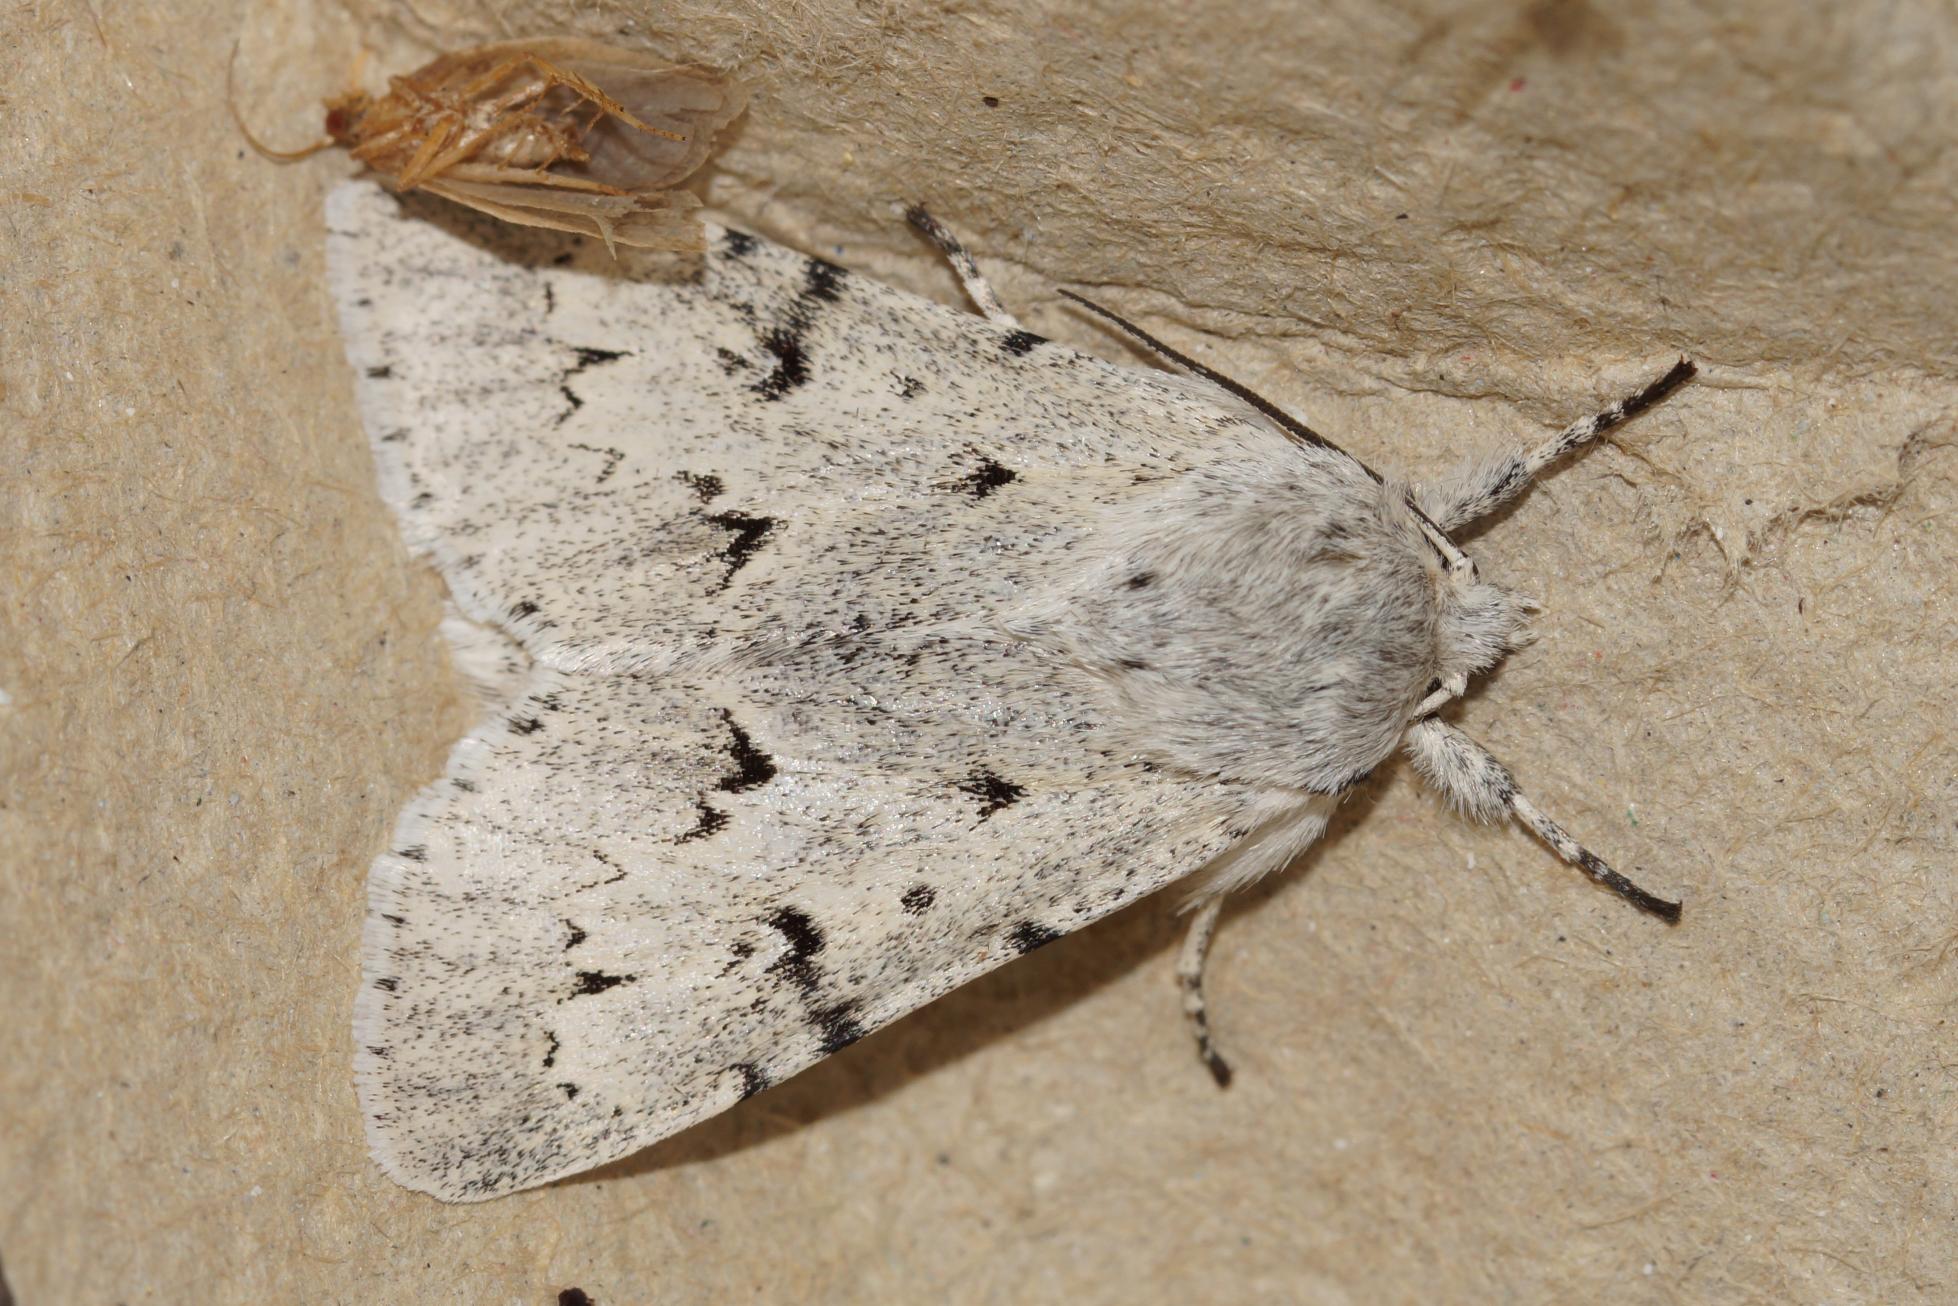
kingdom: Animalia
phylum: Arthropoda
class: Insecta
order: Lepidoptera
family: Noctuidae
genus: Acronicta
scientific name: Acronicta leporina
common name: Snehare
